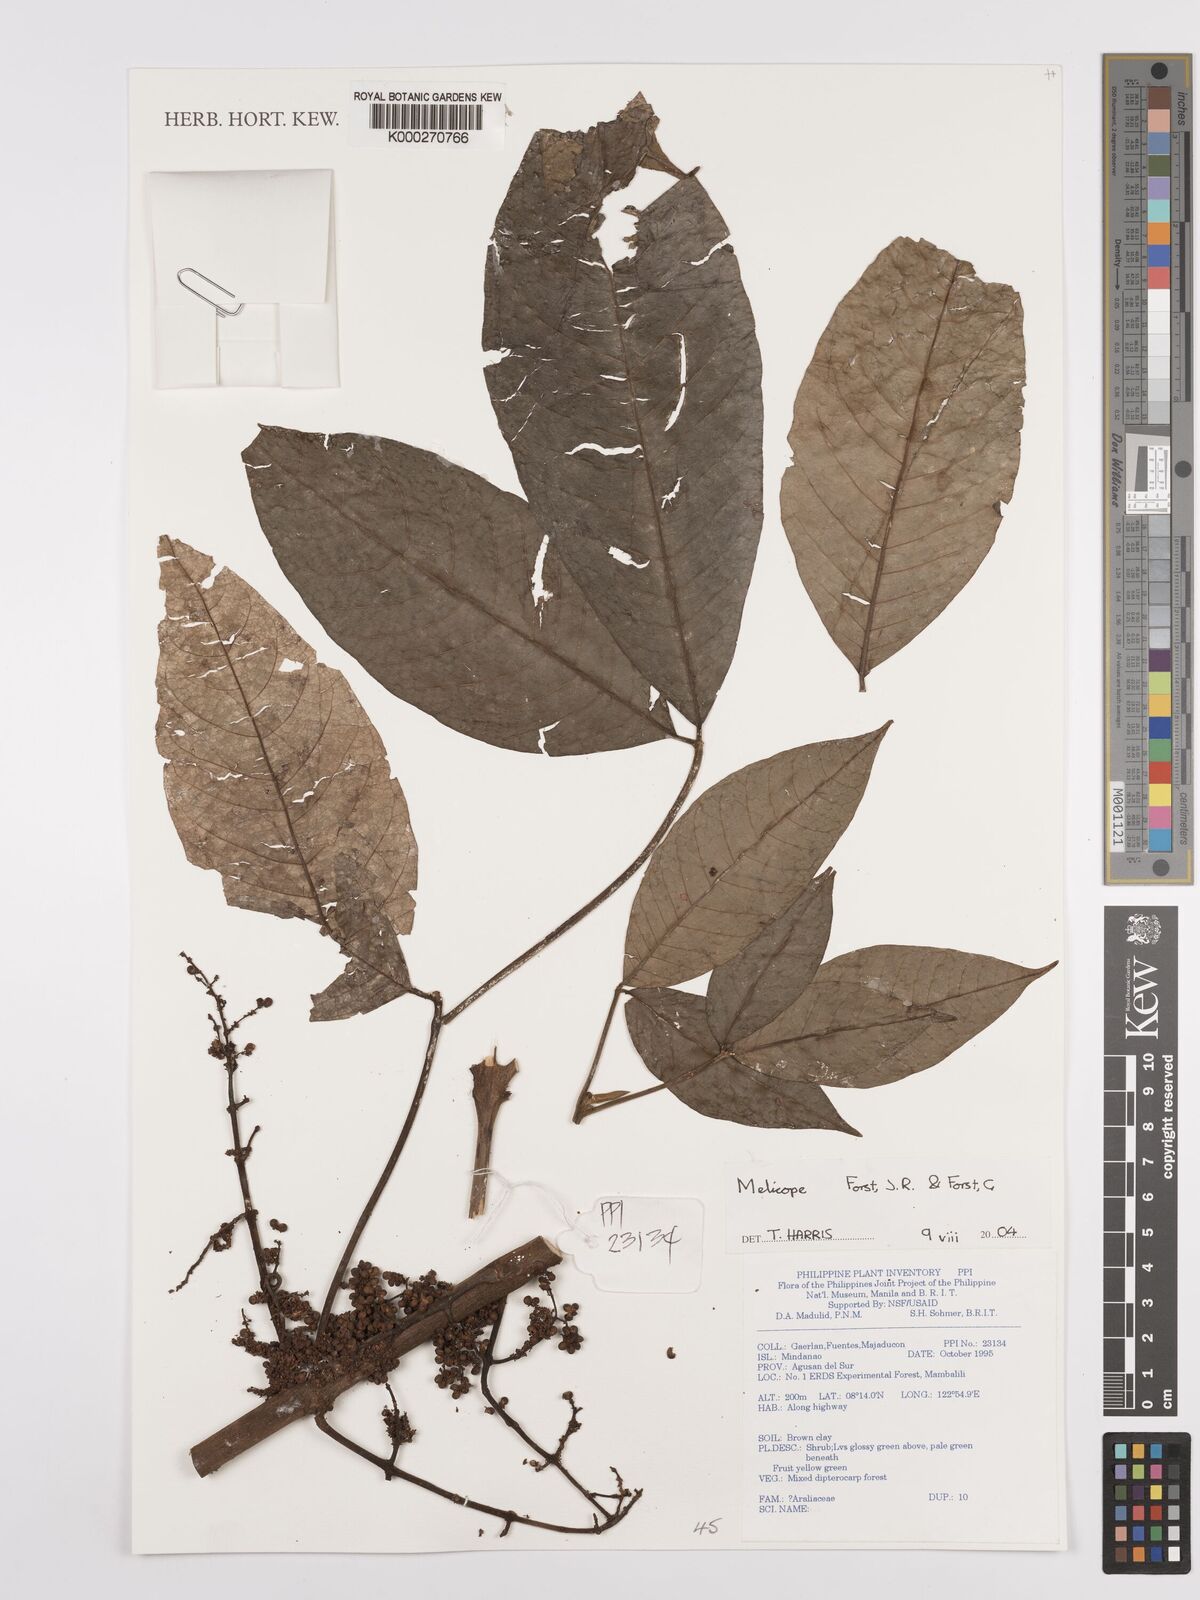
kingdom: Plantae
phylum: Tracheophyta
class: Magnoliopsida
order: Sapindales
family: Rutaceae
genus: Melicope
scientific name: Melicope
